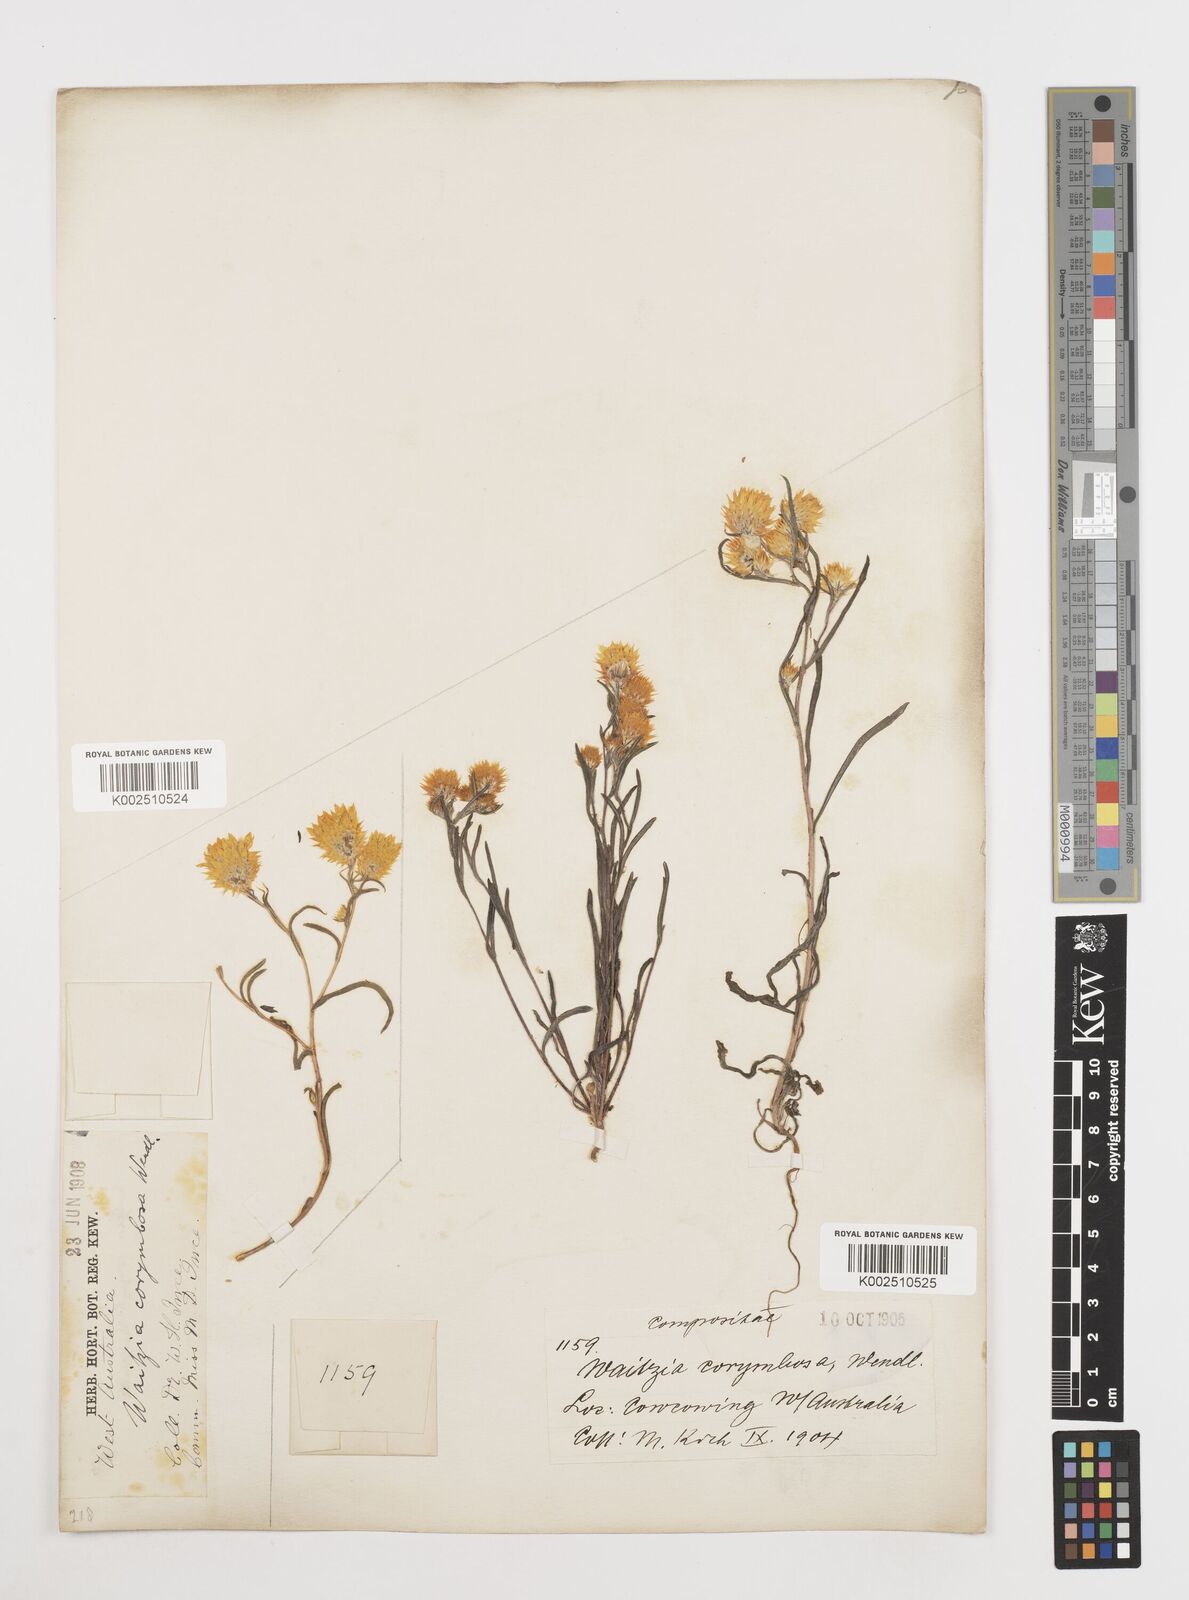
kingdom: Plantae
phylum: Tracheophyta
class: Magnoliopsida
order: Asterales
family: Asteraceae
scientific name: Asteraceae
